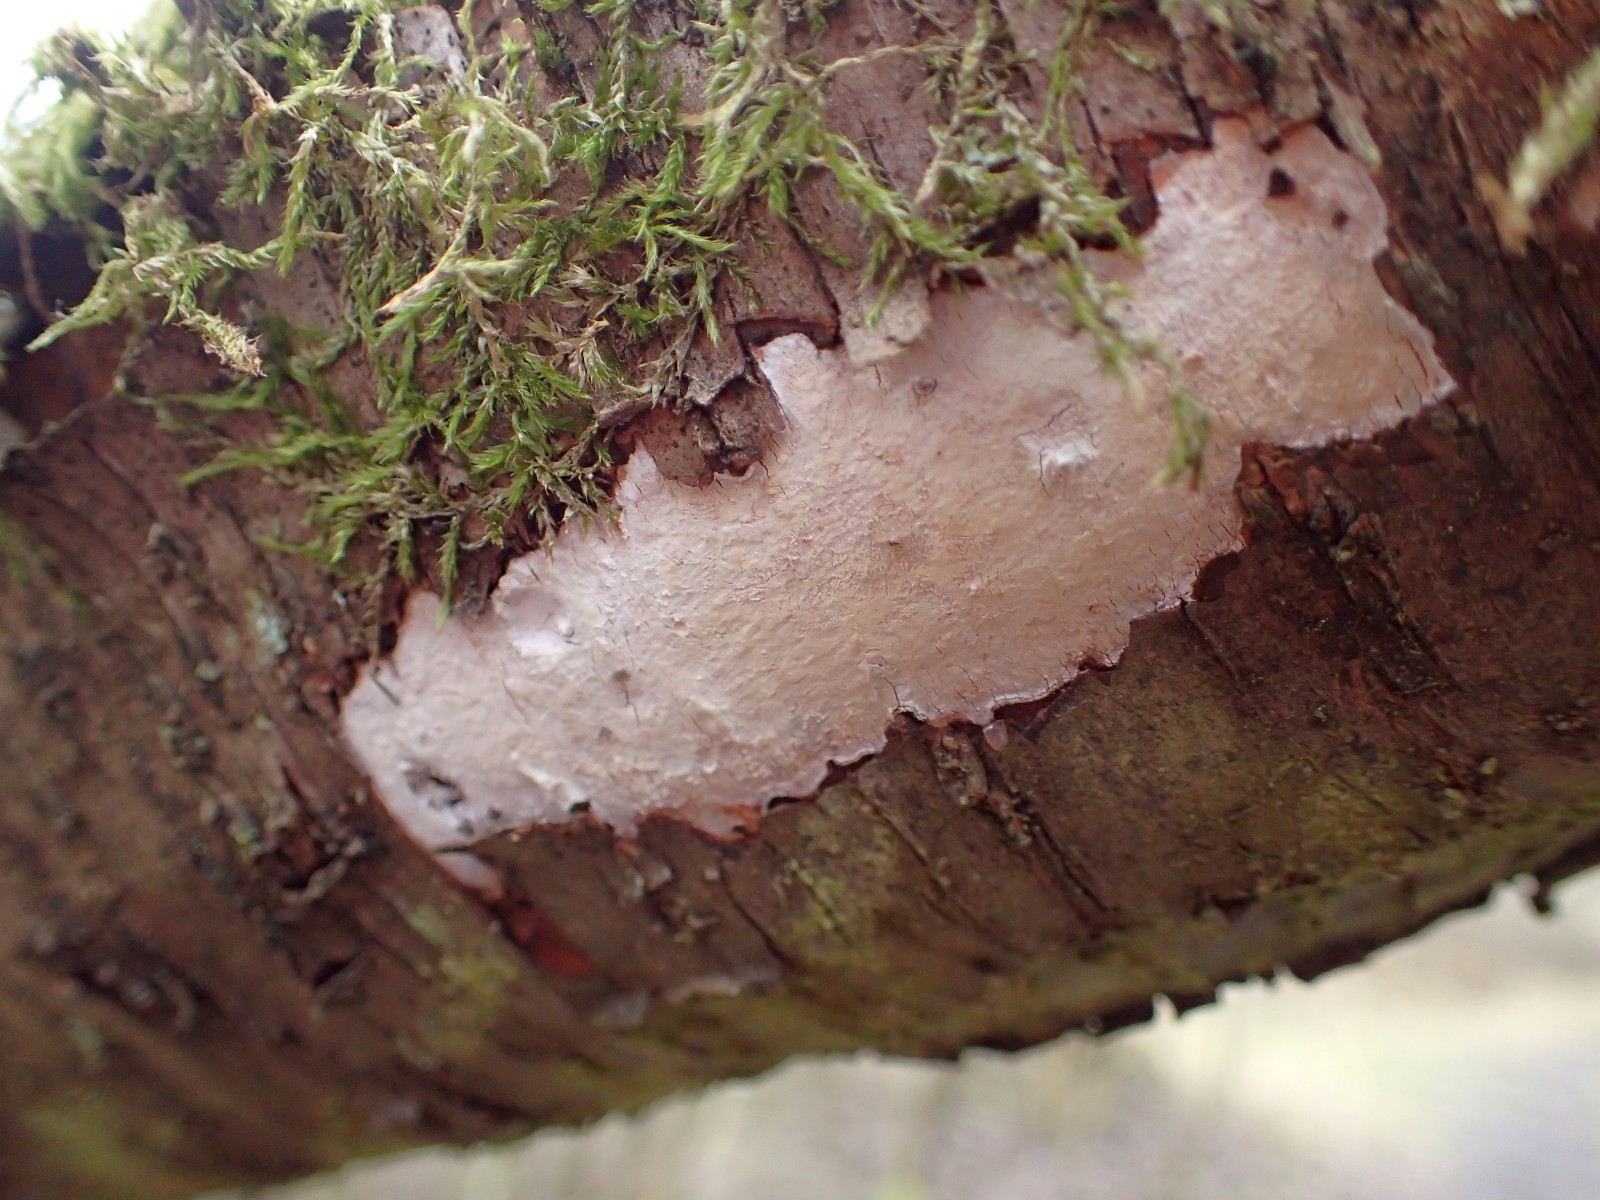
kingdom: Fungi
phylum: Basidiomycota
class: Agaricomycetes
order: Corticiales
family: Corticiaceae
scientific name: Corticiaceae
